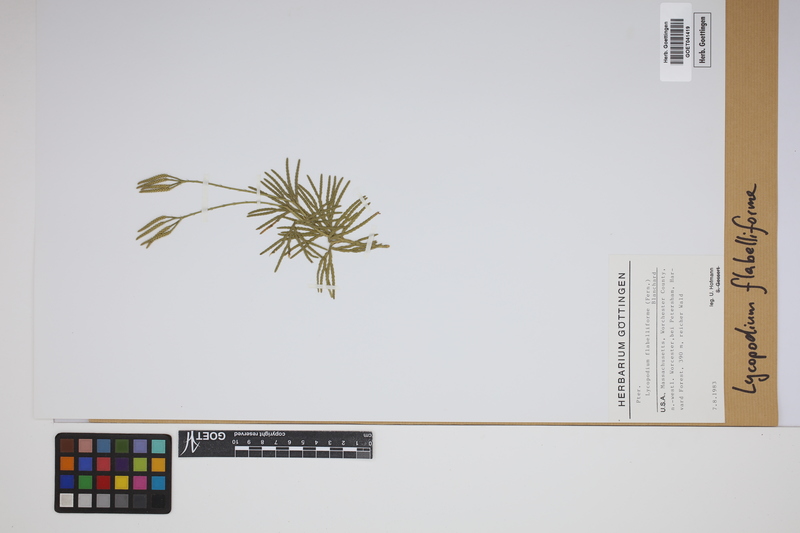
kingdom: Plantae
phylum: Tracheophyta
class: Lycopodiopsida
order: Lycopodiales
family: Lycopodiaceae
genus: Diphasiastrum
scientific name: Diphasiastrum digitatum
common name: Southern running-pine
